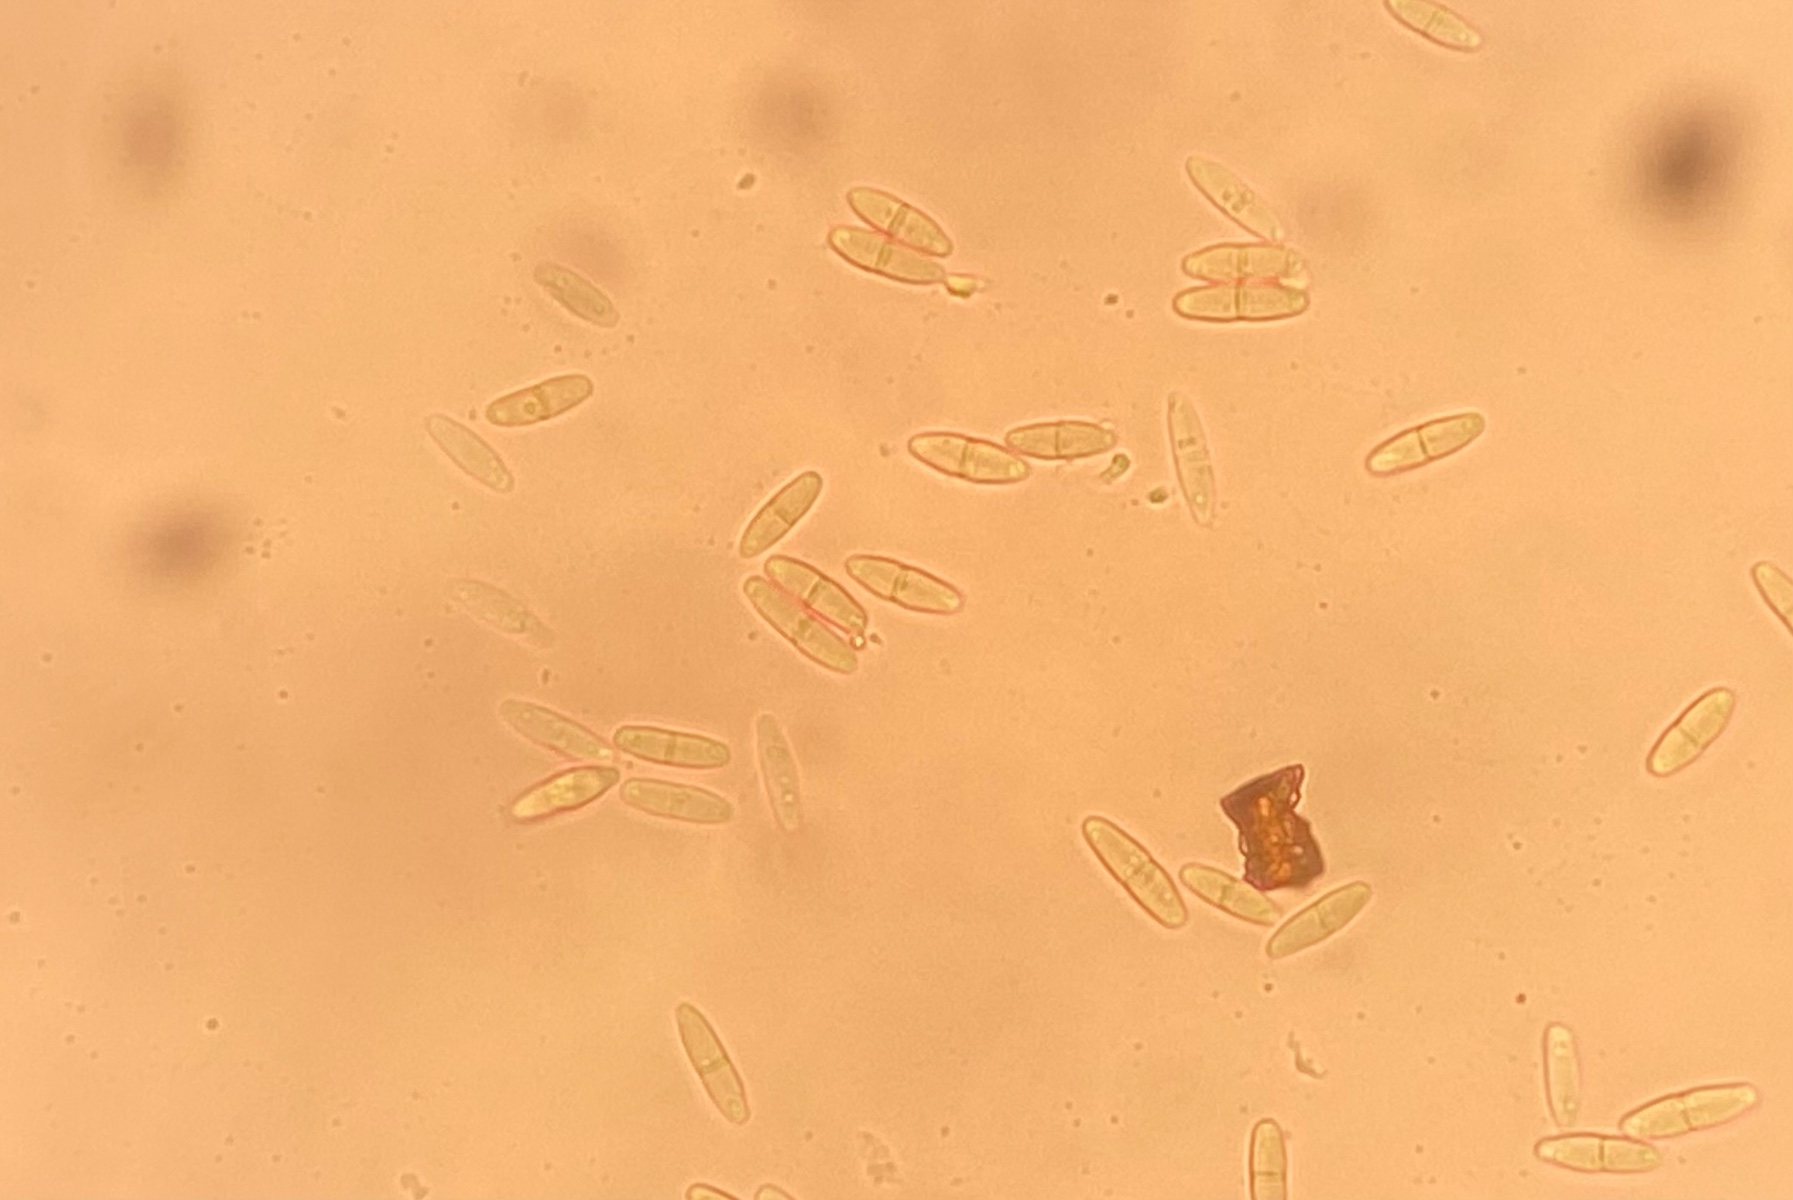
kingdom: Fungi
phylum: Ascomycota
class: Sordariomycetes
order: Diaporthales
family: Gnomoniaceae
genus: Diplodina
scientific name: Diplodina euphrasiae
